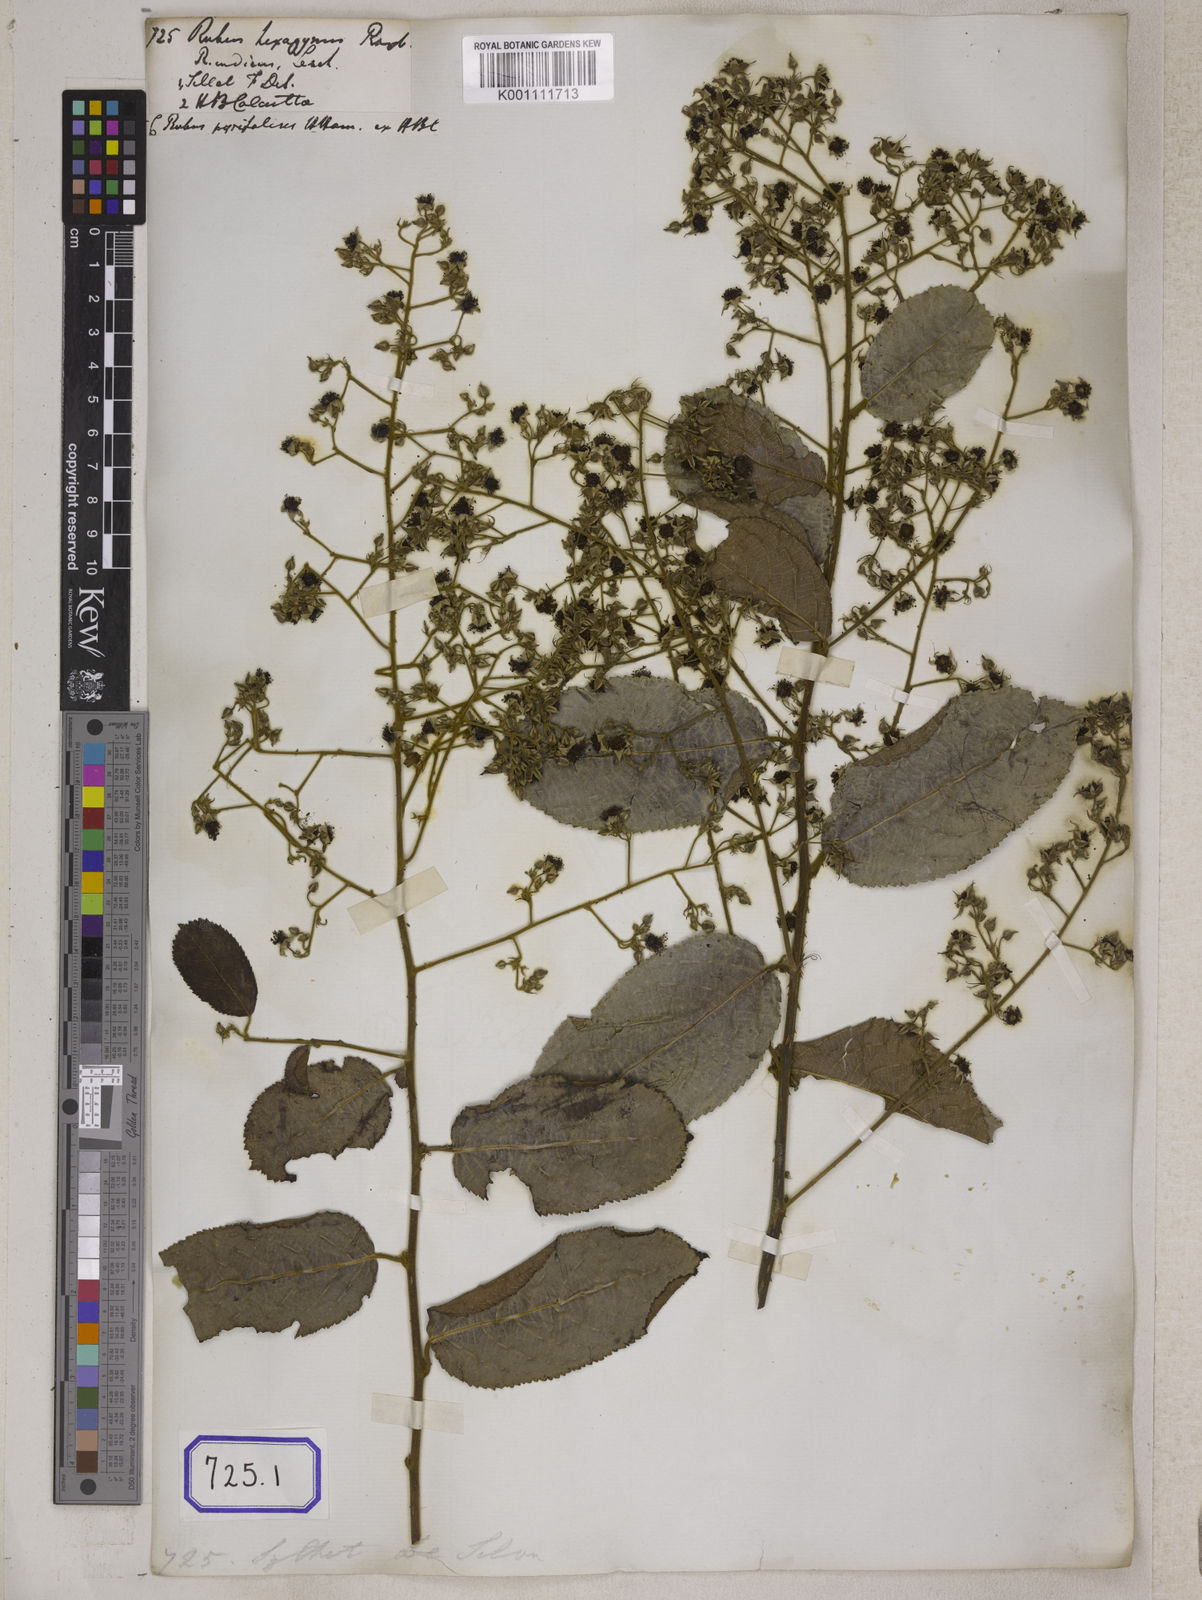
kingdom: Plantae
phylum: Tracheophyta
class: Magnoliopsida
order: Rosales
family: Rosaceae
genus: Rubus
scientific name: Rubus hexagynus
